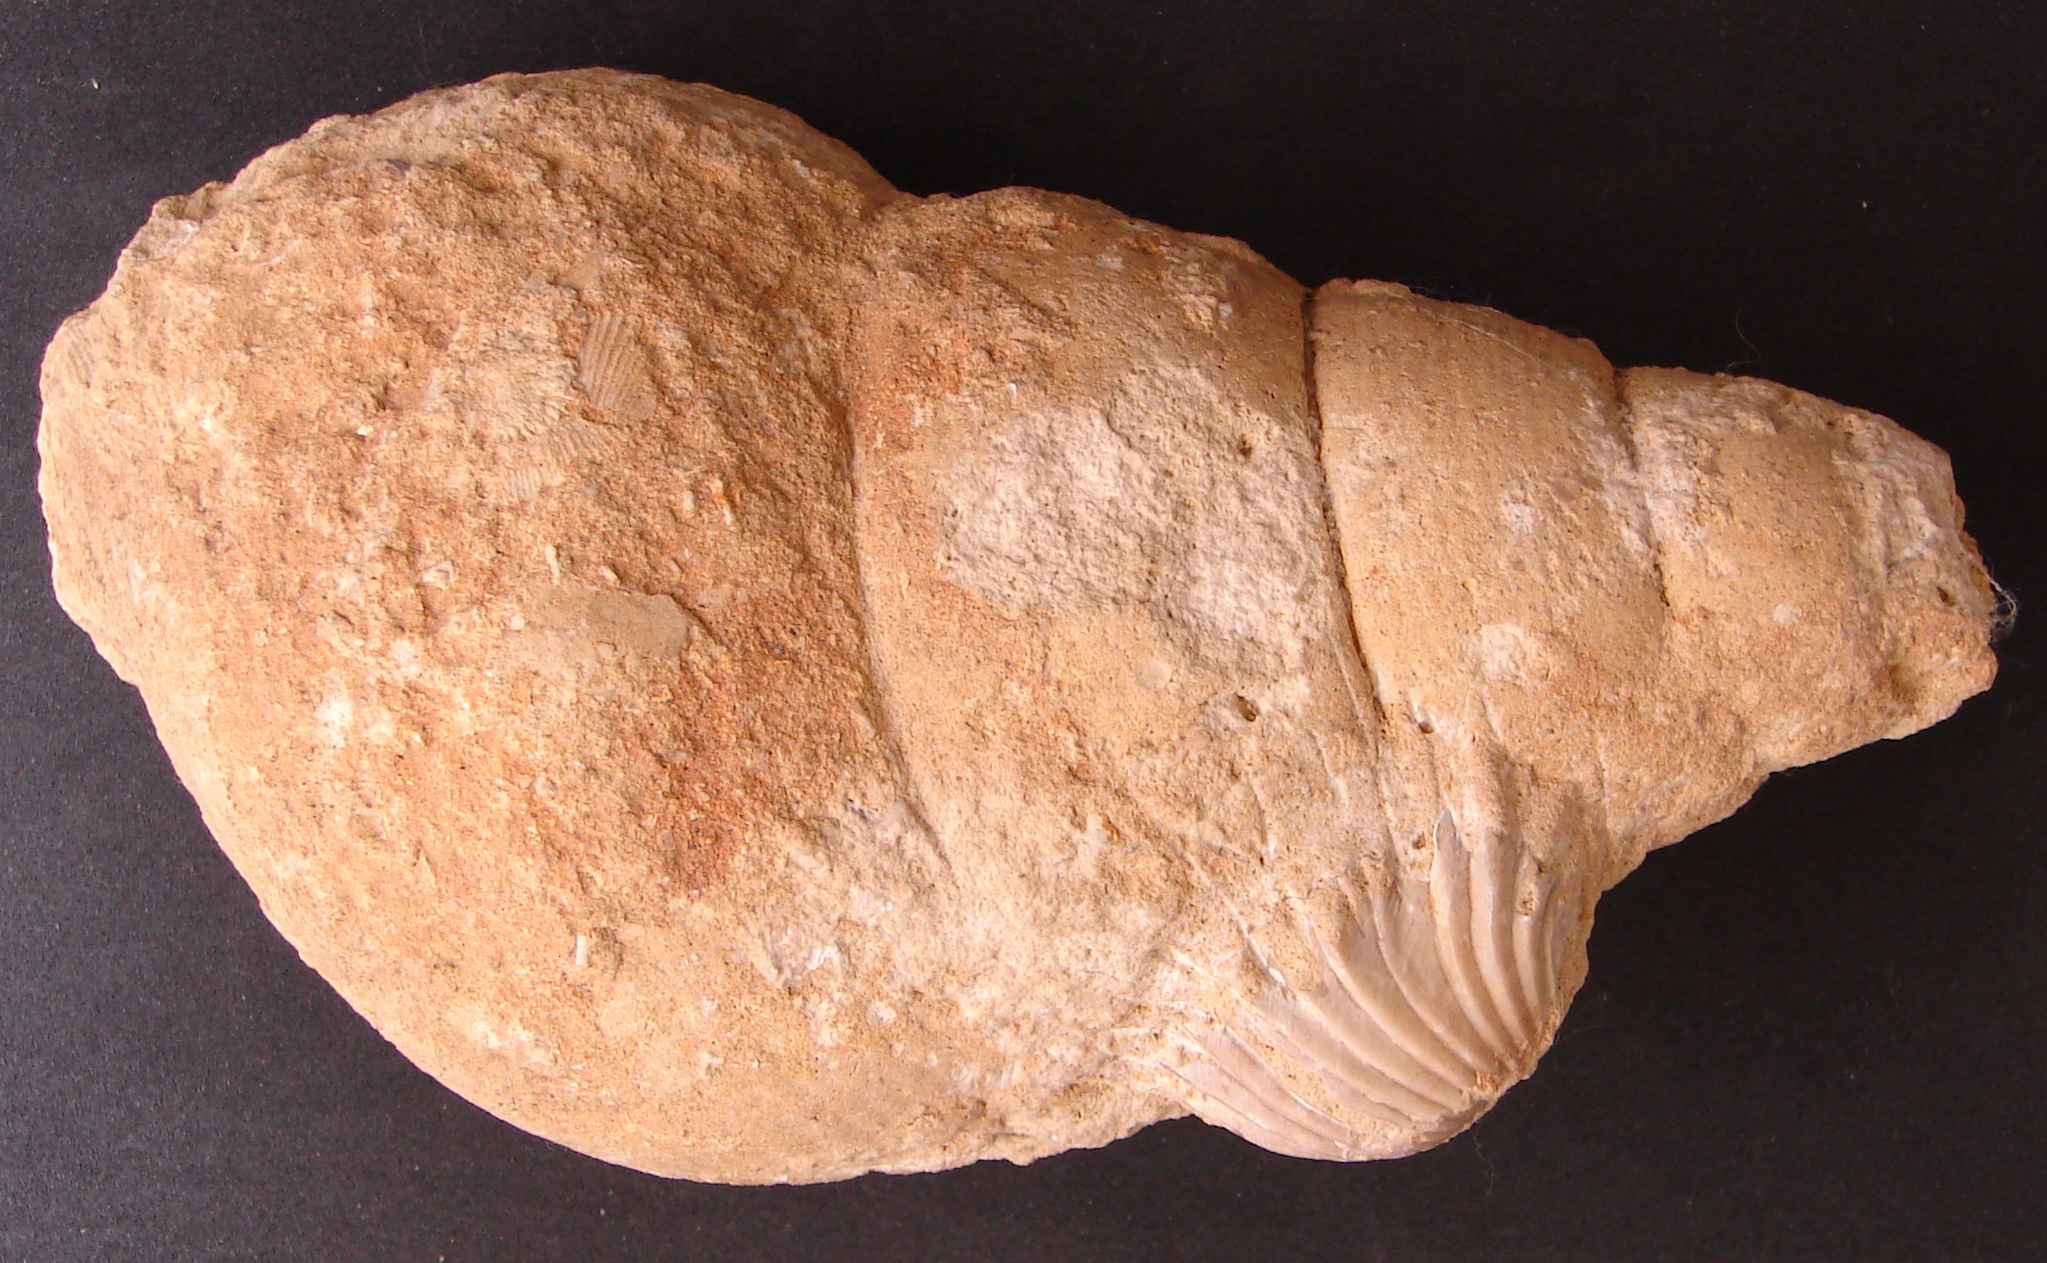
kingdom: Animalia
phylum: Mollusca
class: Gastropoda
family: Pseudomelaniidae
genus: Bourgetia
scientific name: Bourgetia saemanni
